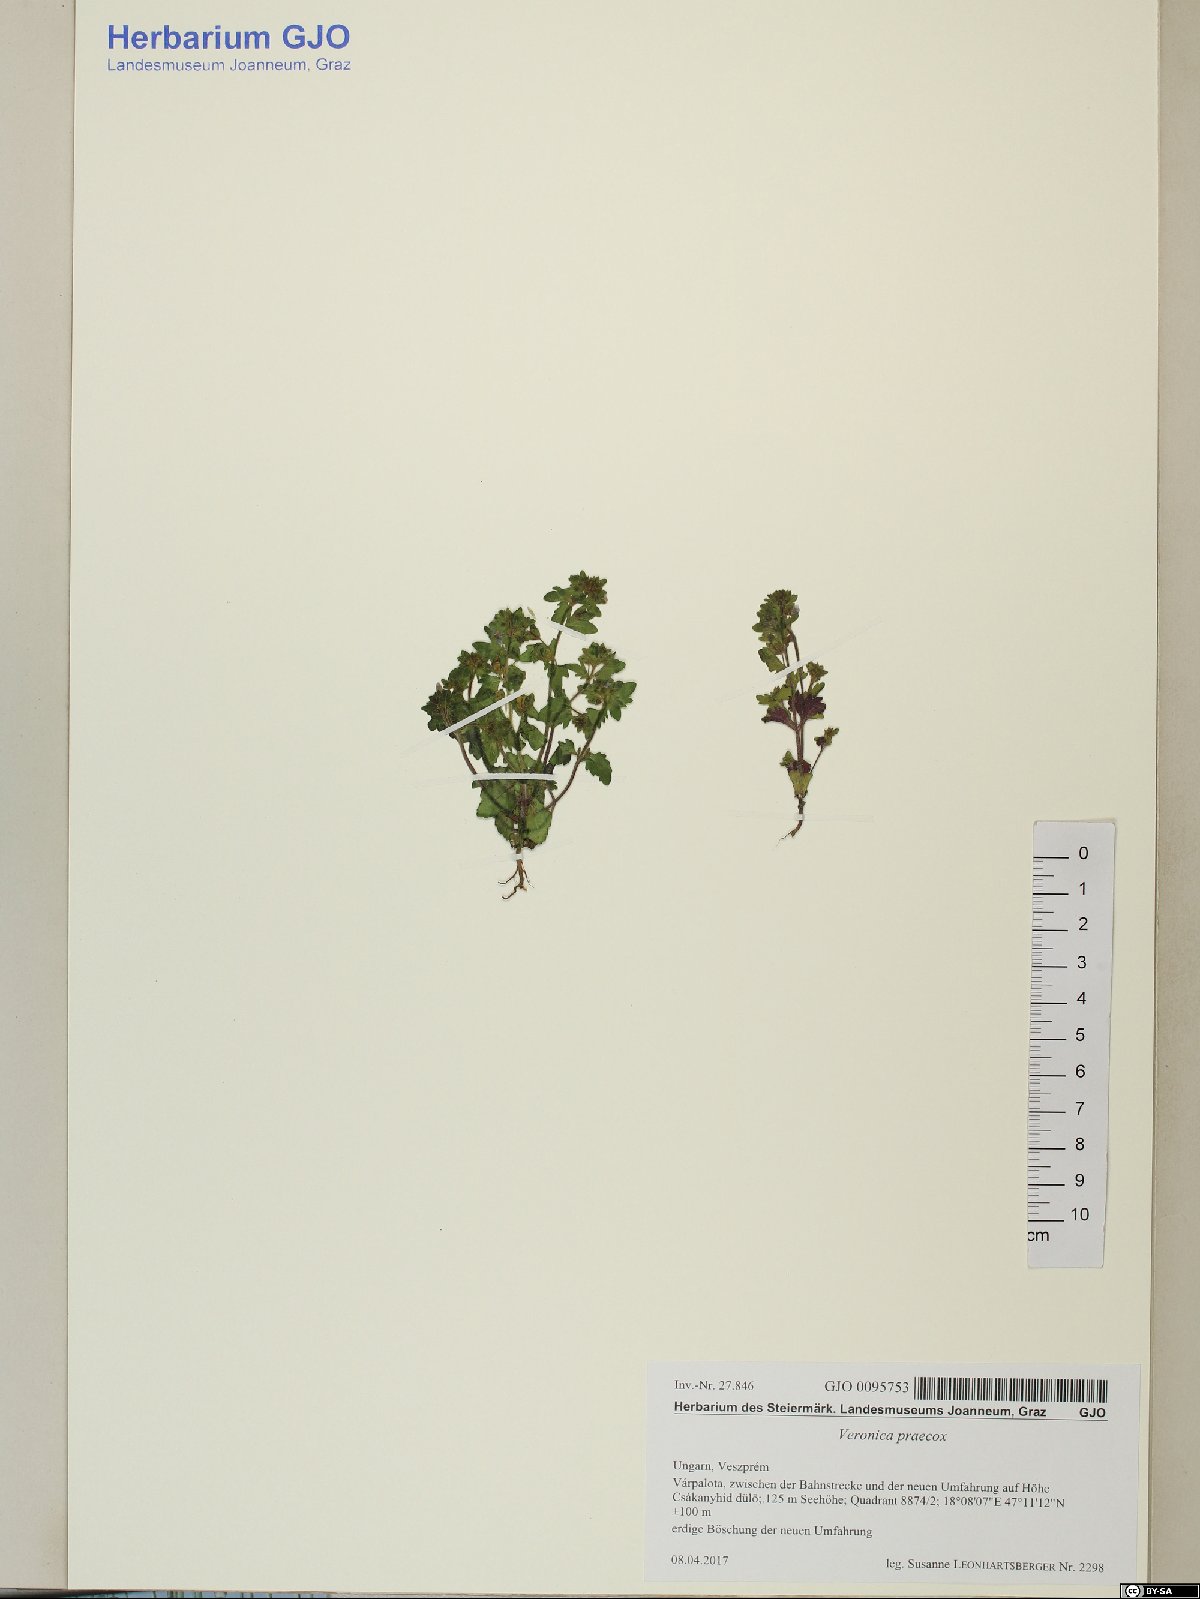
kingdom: Plantae
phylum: Tracheophyta
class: Magnoliopsida
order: Lamiales
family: Plantaginaceae
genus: Veronica
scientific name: Veronica praecox
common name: Breckland speedwell
